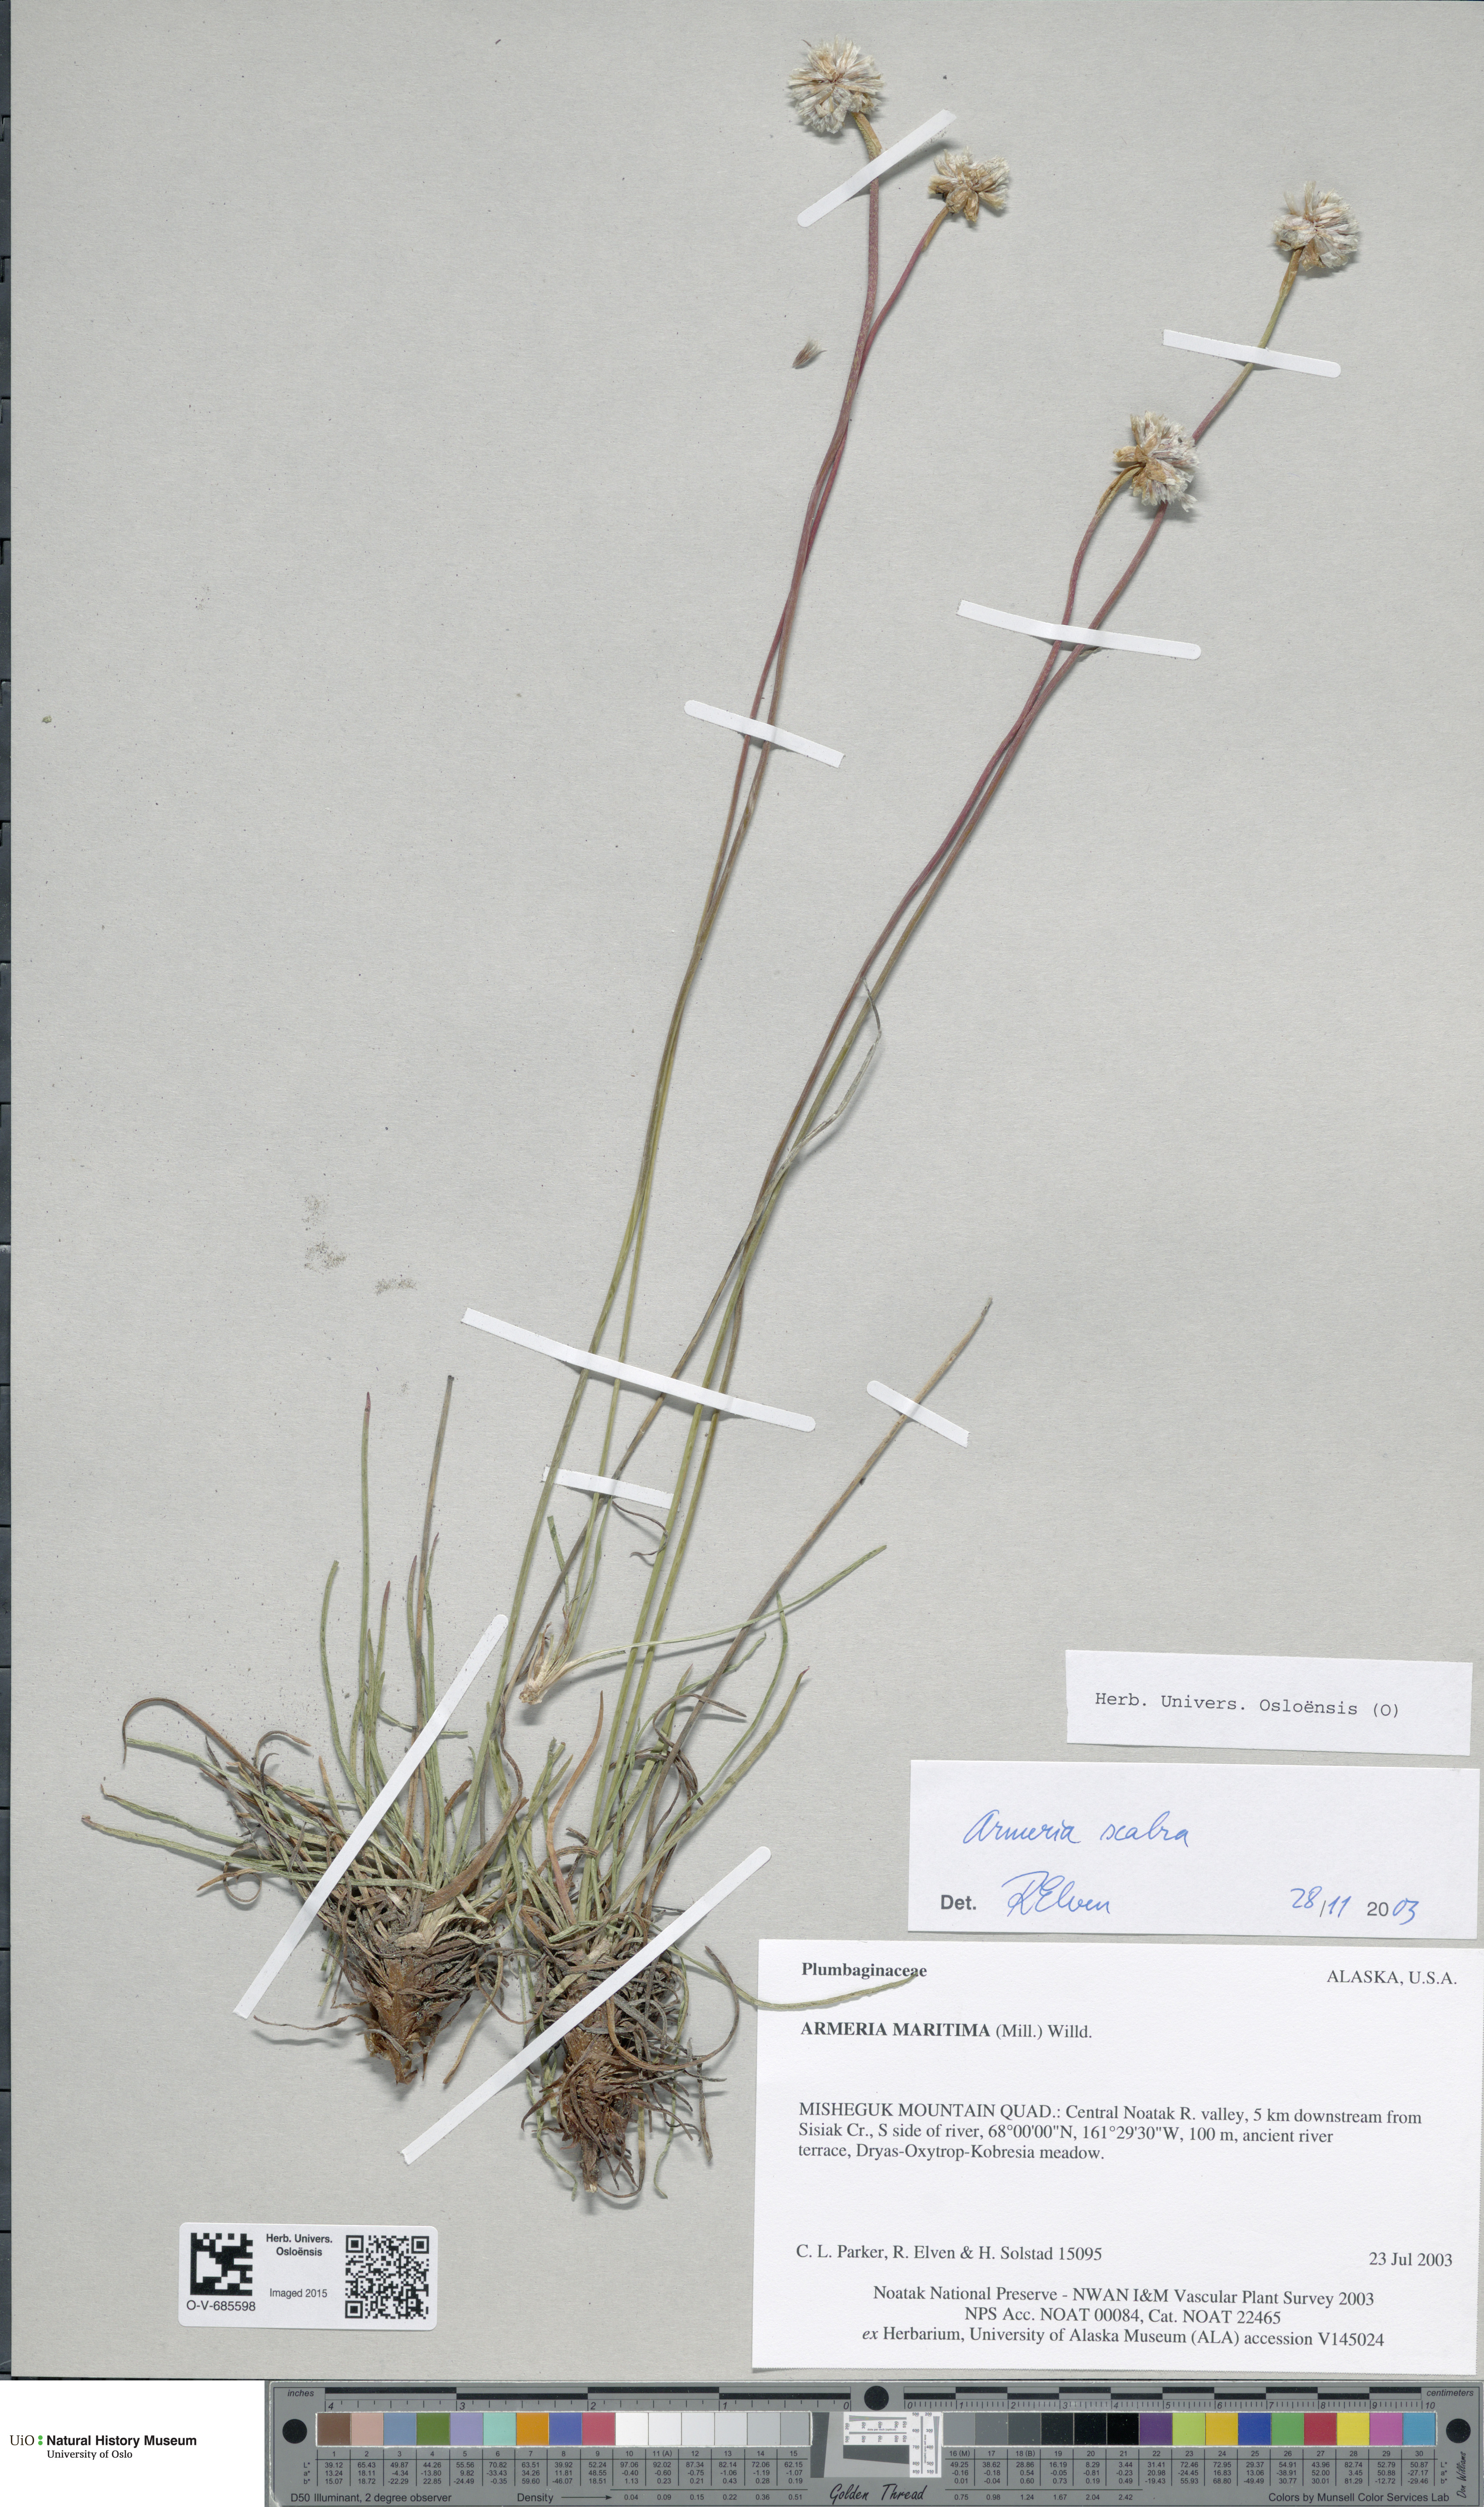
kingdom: Plantae
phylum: Tracheophyta
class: Magnoliopsida
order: Caryophyllales
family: Plumbaginaceae
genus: Armeria
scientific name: Armeria maritima
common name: Thrift
